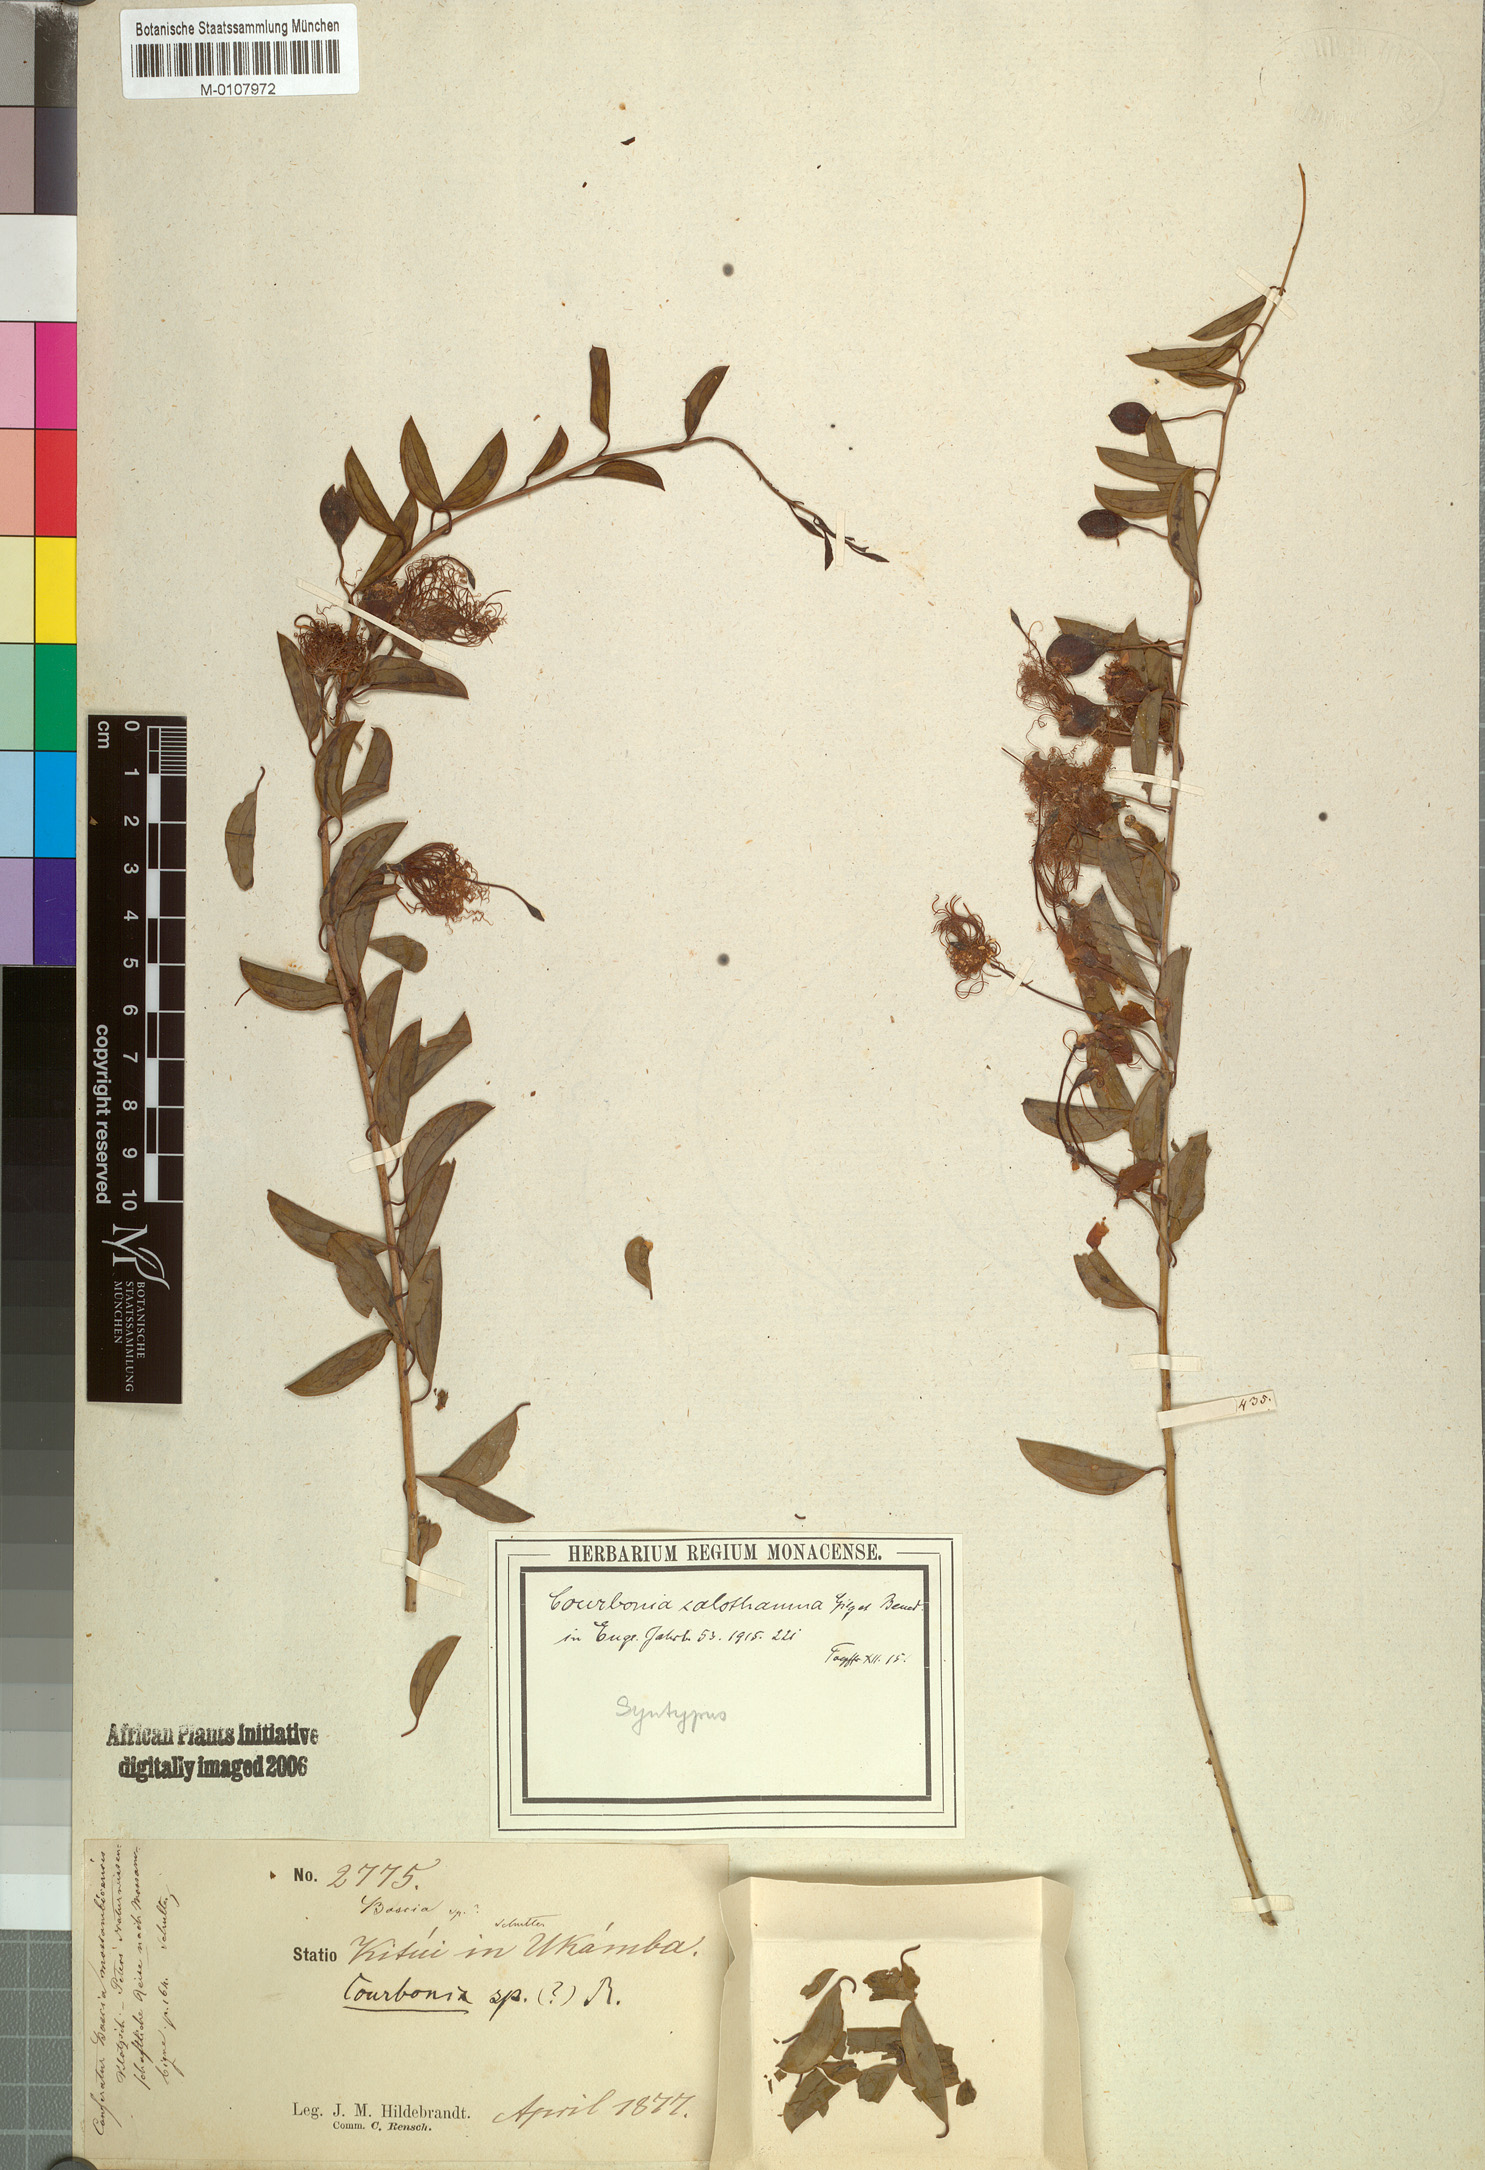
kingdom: Plantae
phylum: Tracheophyta
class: Magnoliopsida
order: Brassicales
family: Capparaceae
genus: Maerua
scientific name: Maerua edulis
